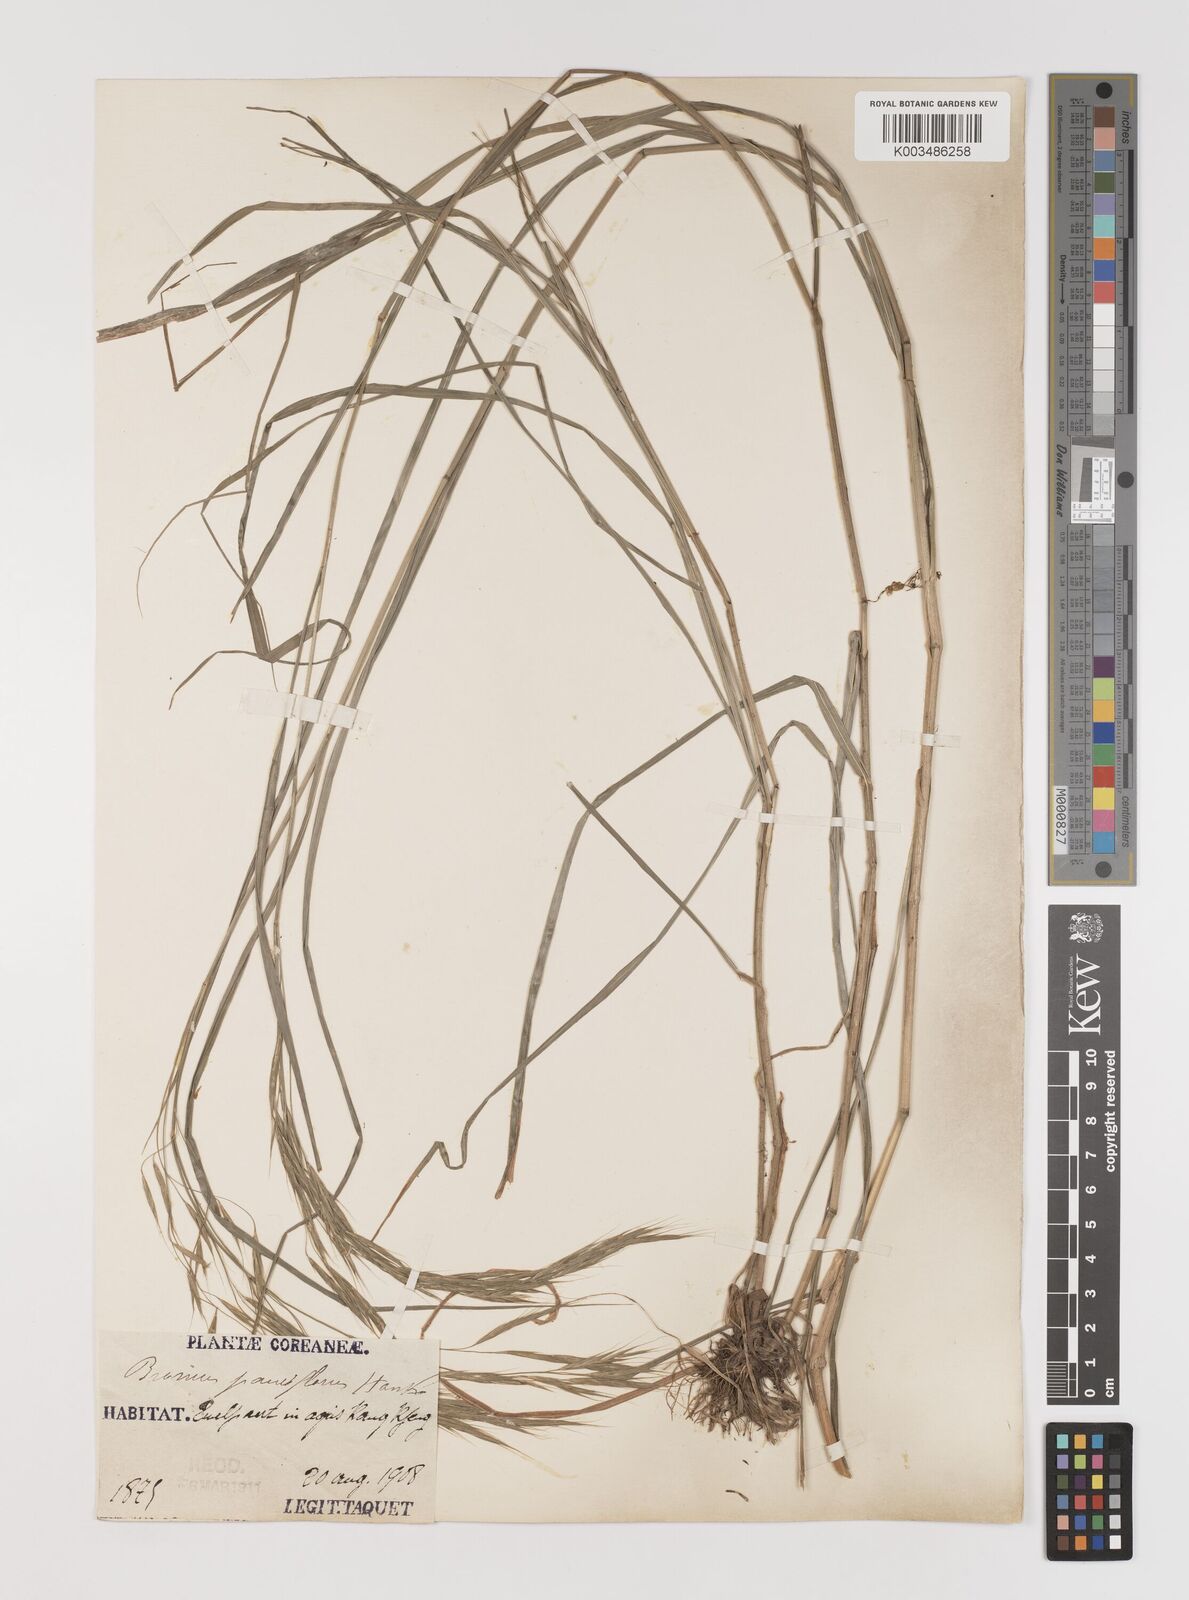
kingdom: Plantae
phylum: Tracheophyta
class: Liliopsida
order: Poales
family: Poaceae
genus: Bromus
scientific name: Bromus remotiflorus
